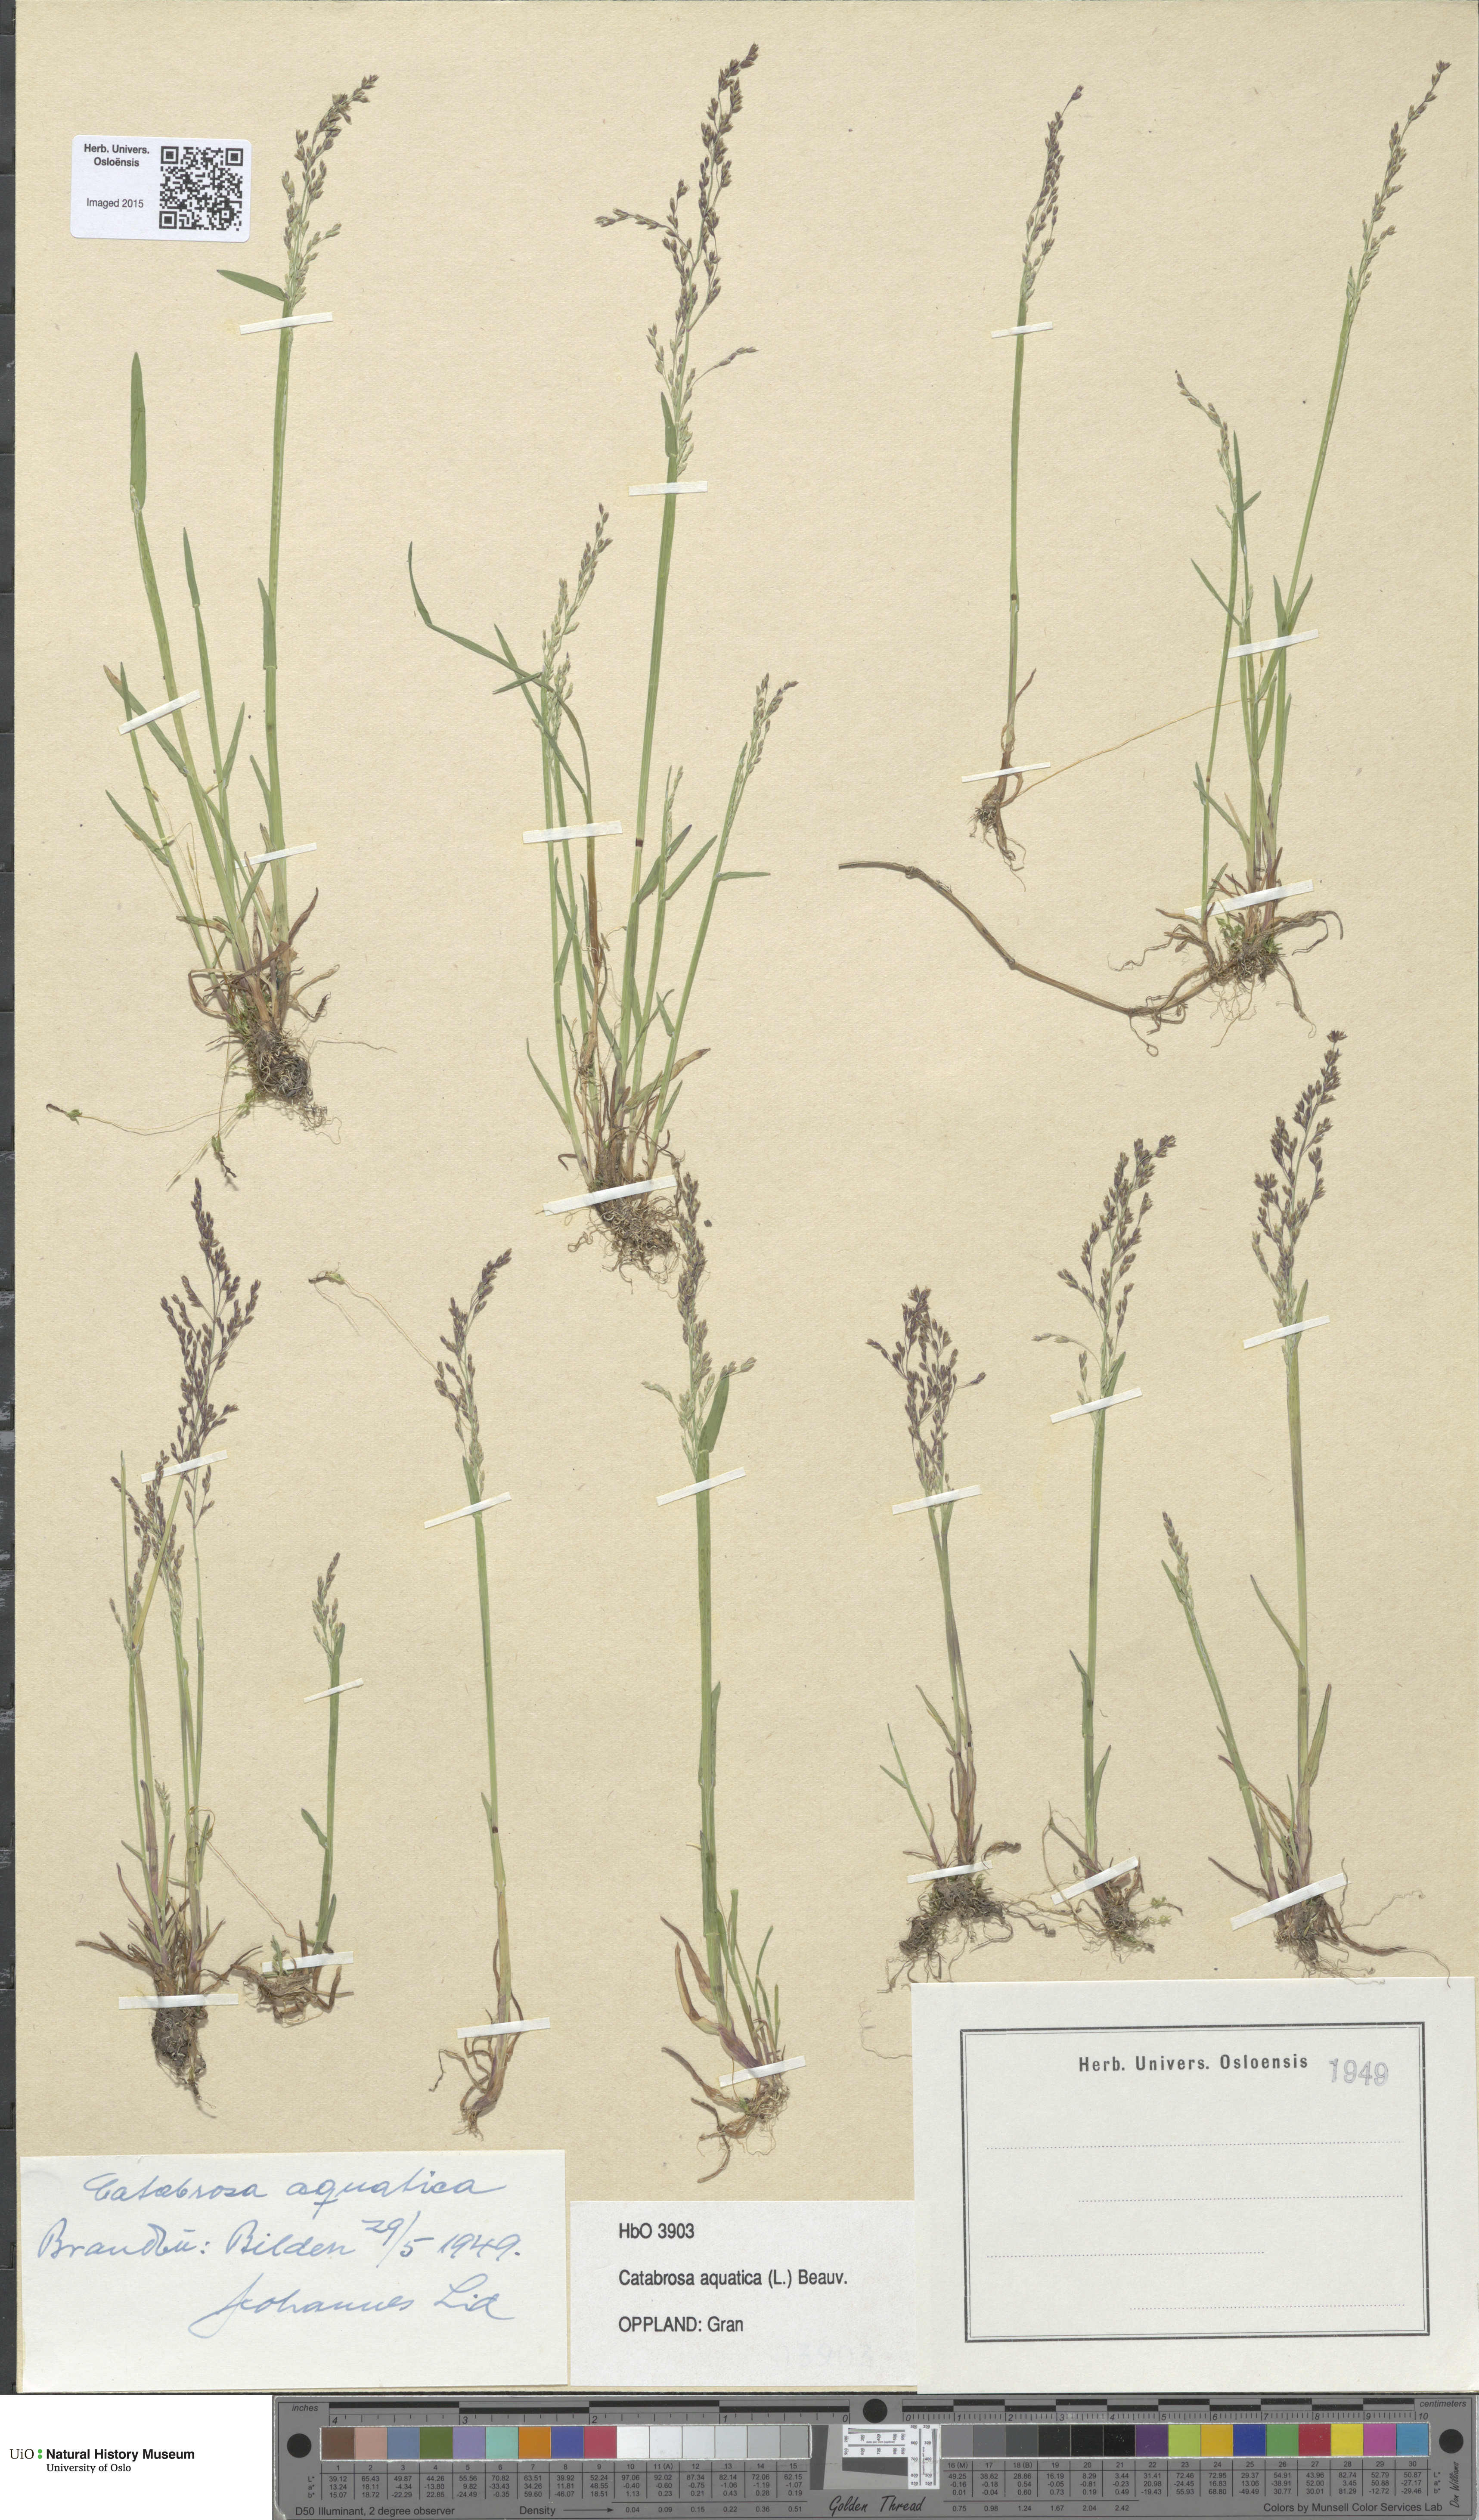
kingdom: Plantae
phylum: Tracheophyta
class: Liliopsida
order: Poales
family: Poaceae
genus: Catabrosa
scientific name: Catabrosa aquatica
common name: Whorl-grass
